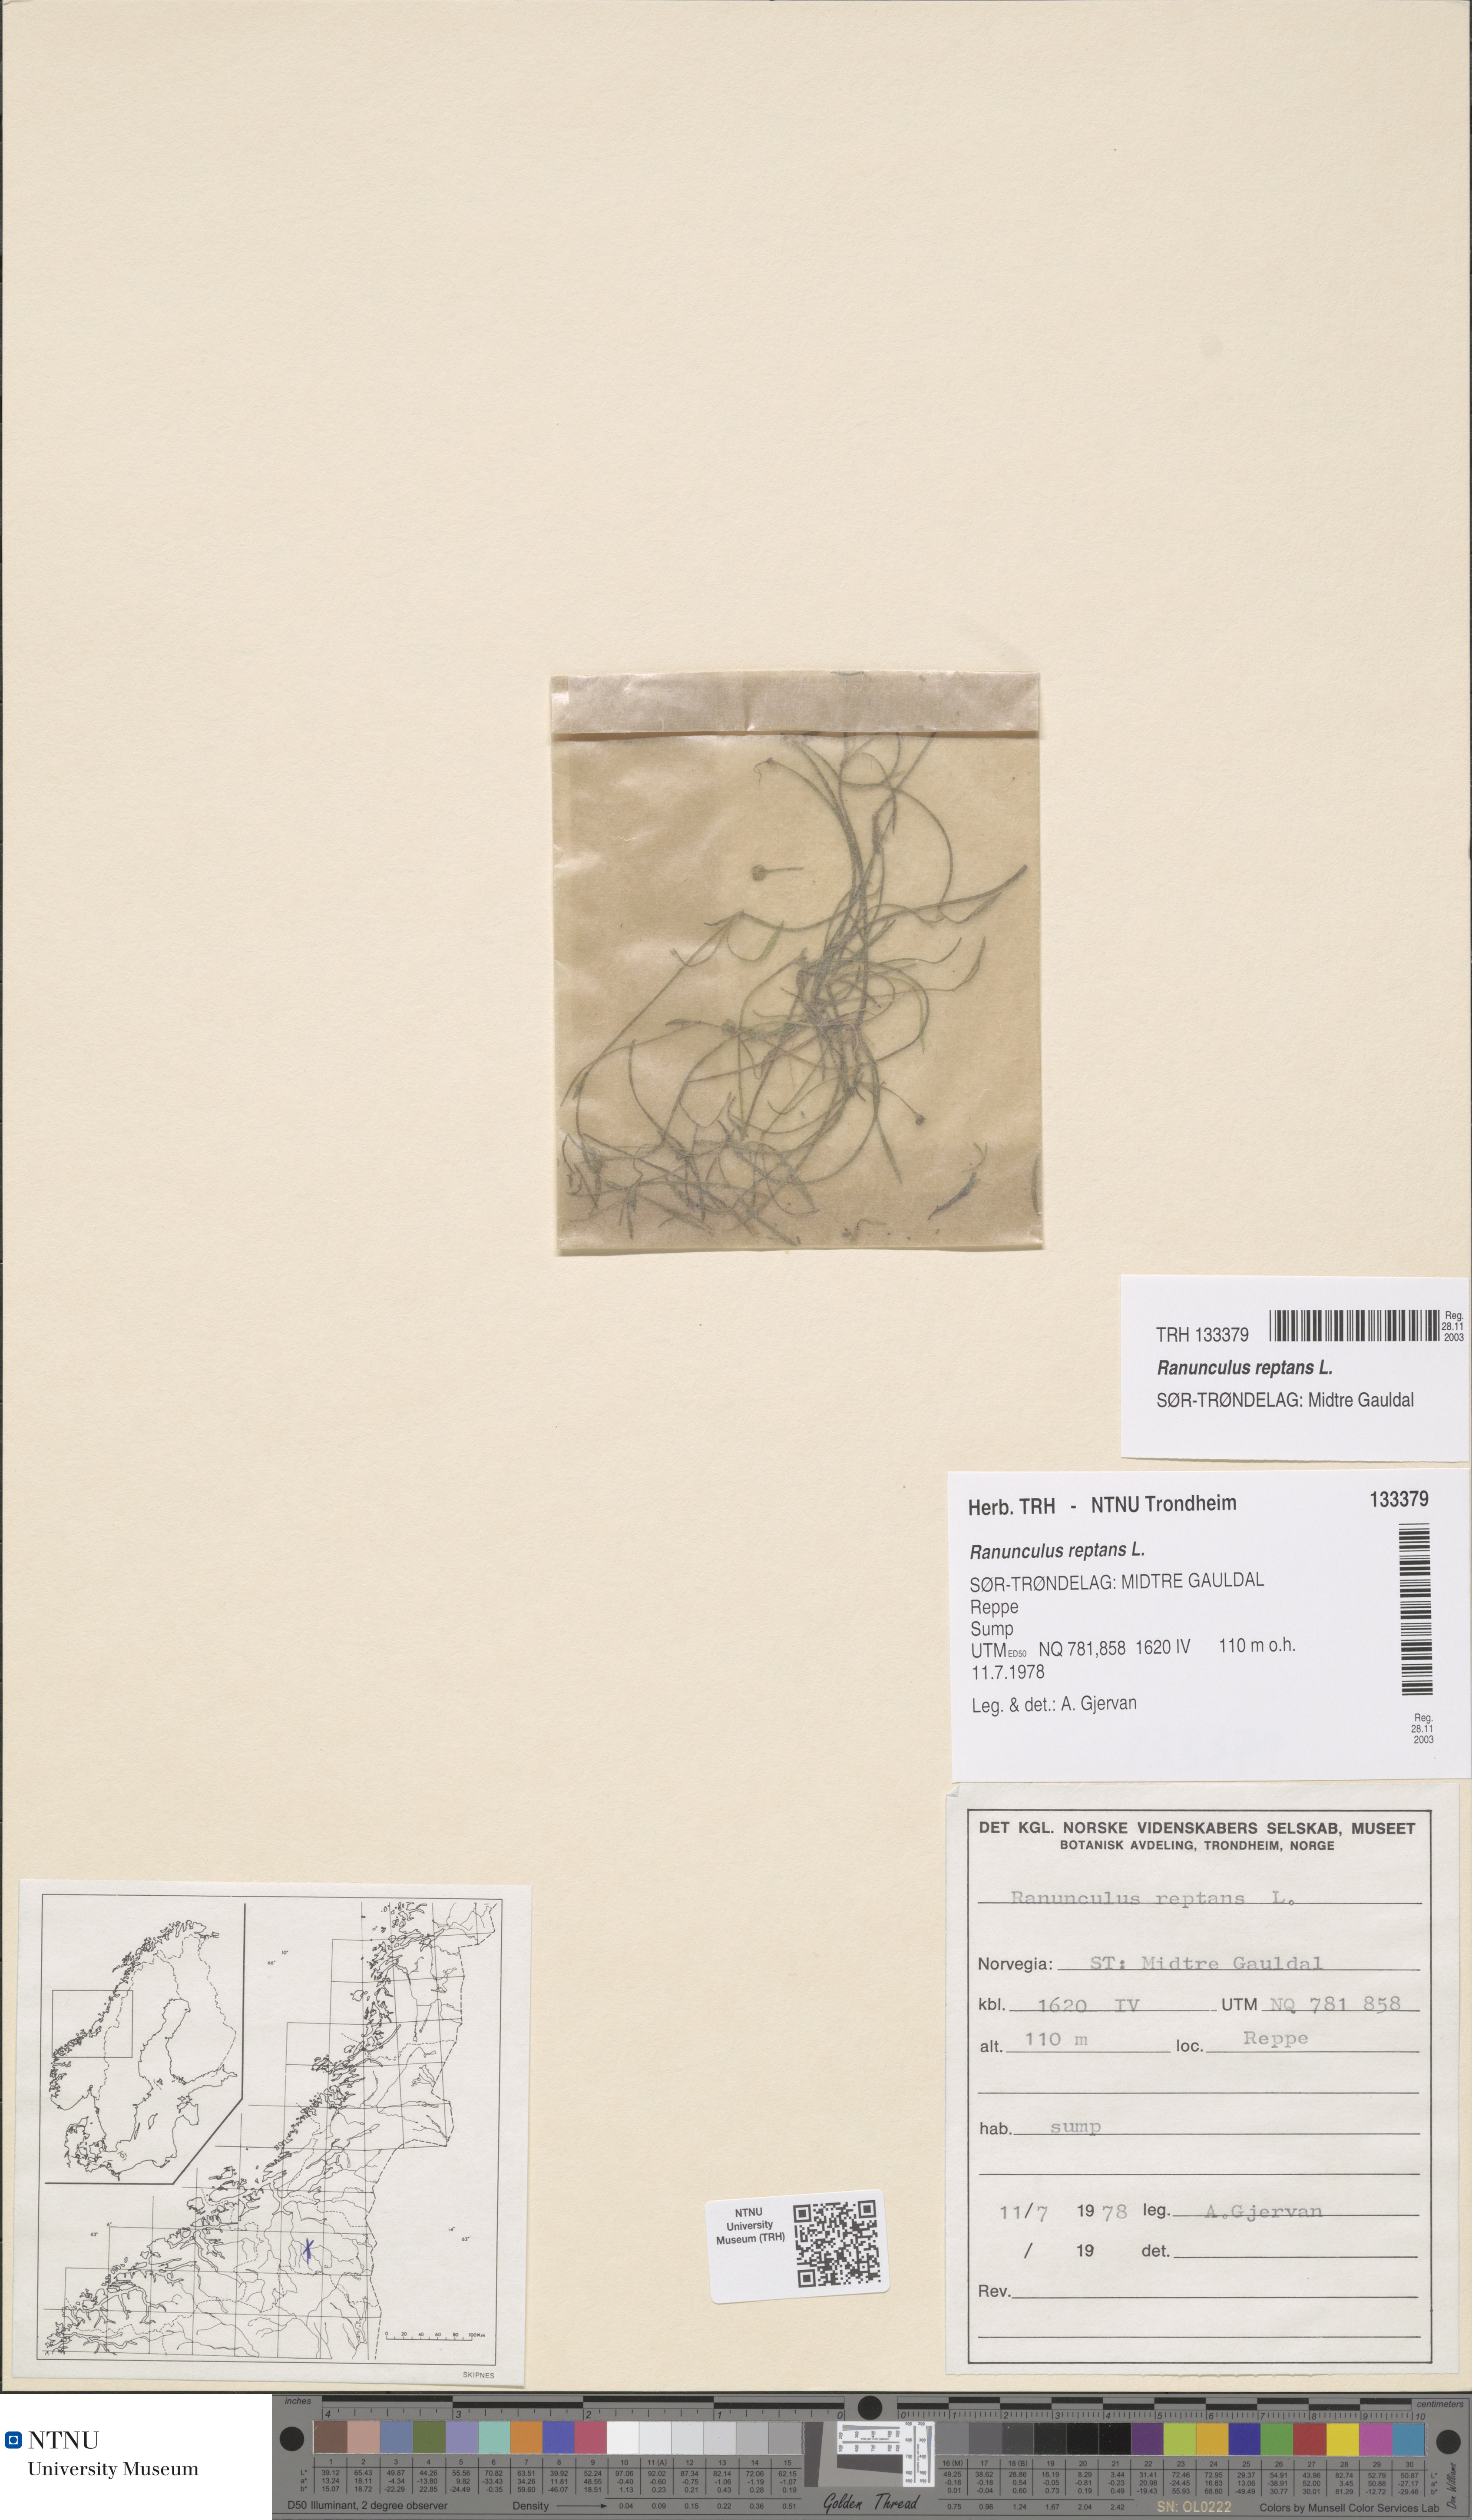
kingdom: Plantae
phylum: Tracheophyta
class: Magnoliopsida
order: Ranunculales
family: Ranunculaceae
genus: Ranunculus
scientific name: Ranunculus reptans
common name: Creeping spearwort
